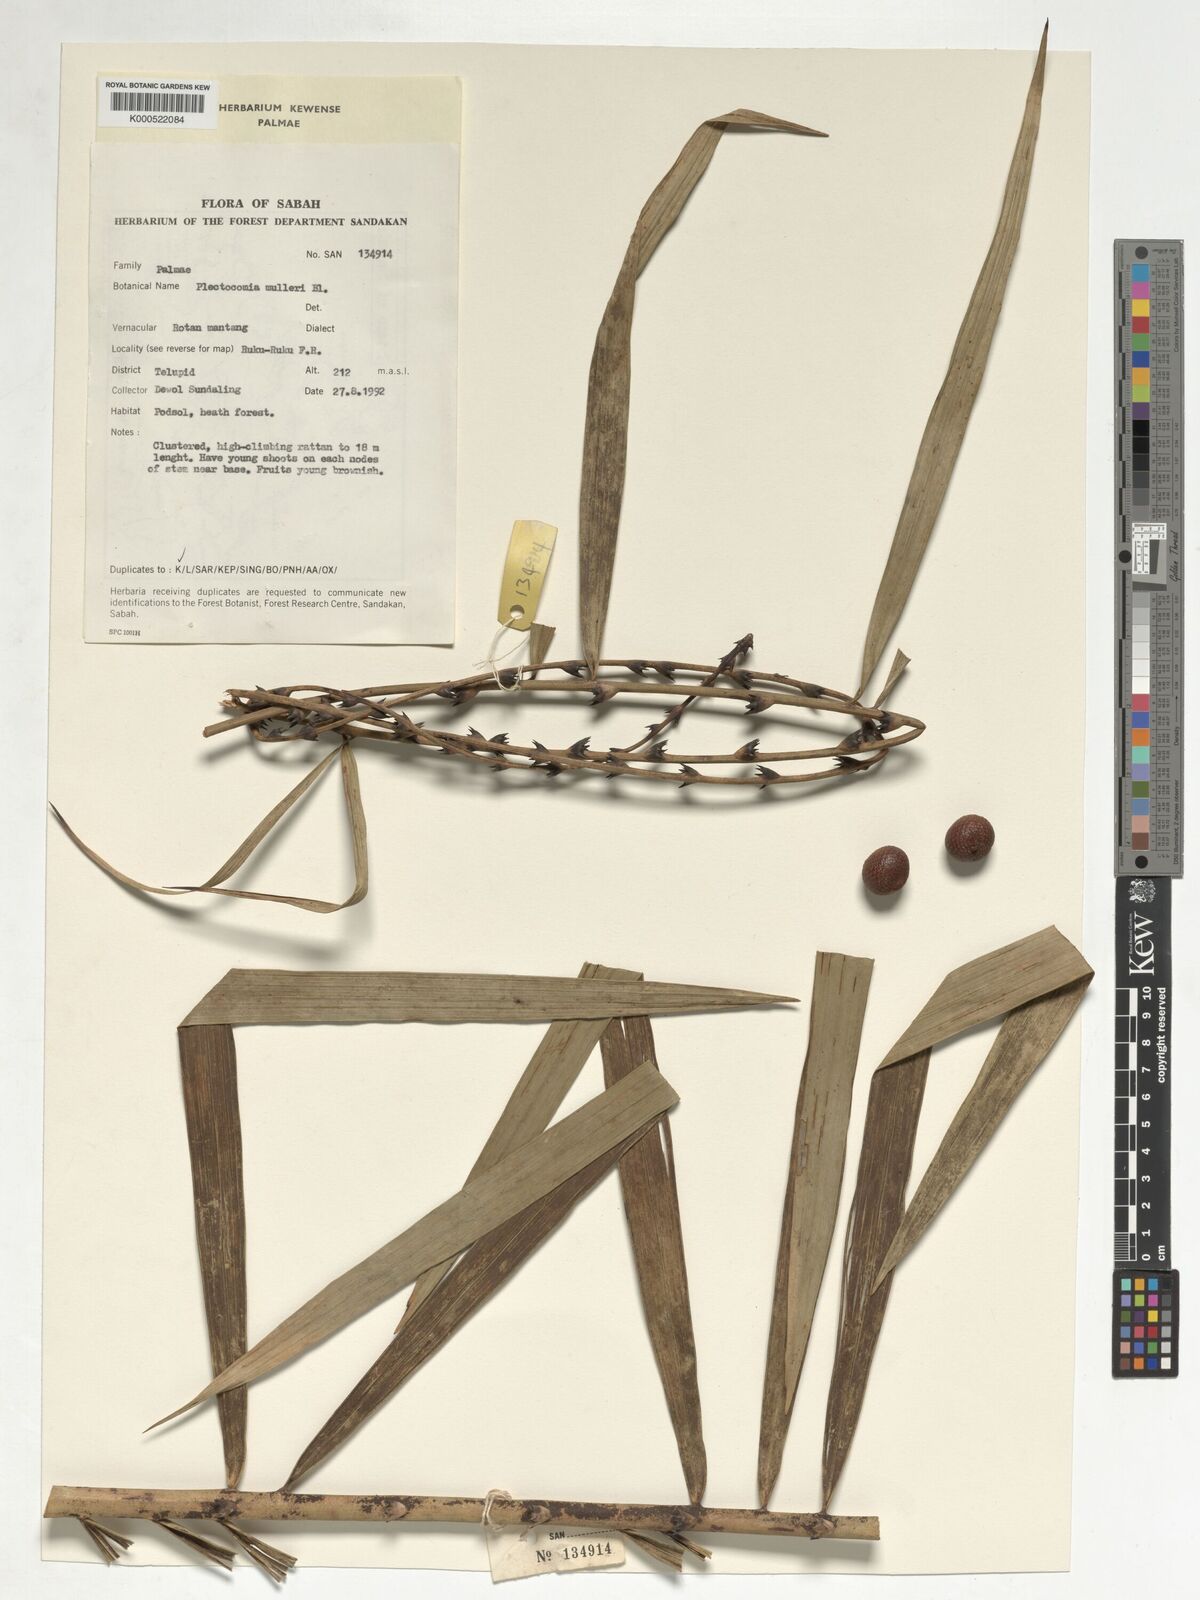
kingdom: Plantae
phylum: Tracheophyta
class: Liliopsida
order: Arecales
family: Arecaceae
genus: Plectocomia
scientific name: Plectocomia mulleri
